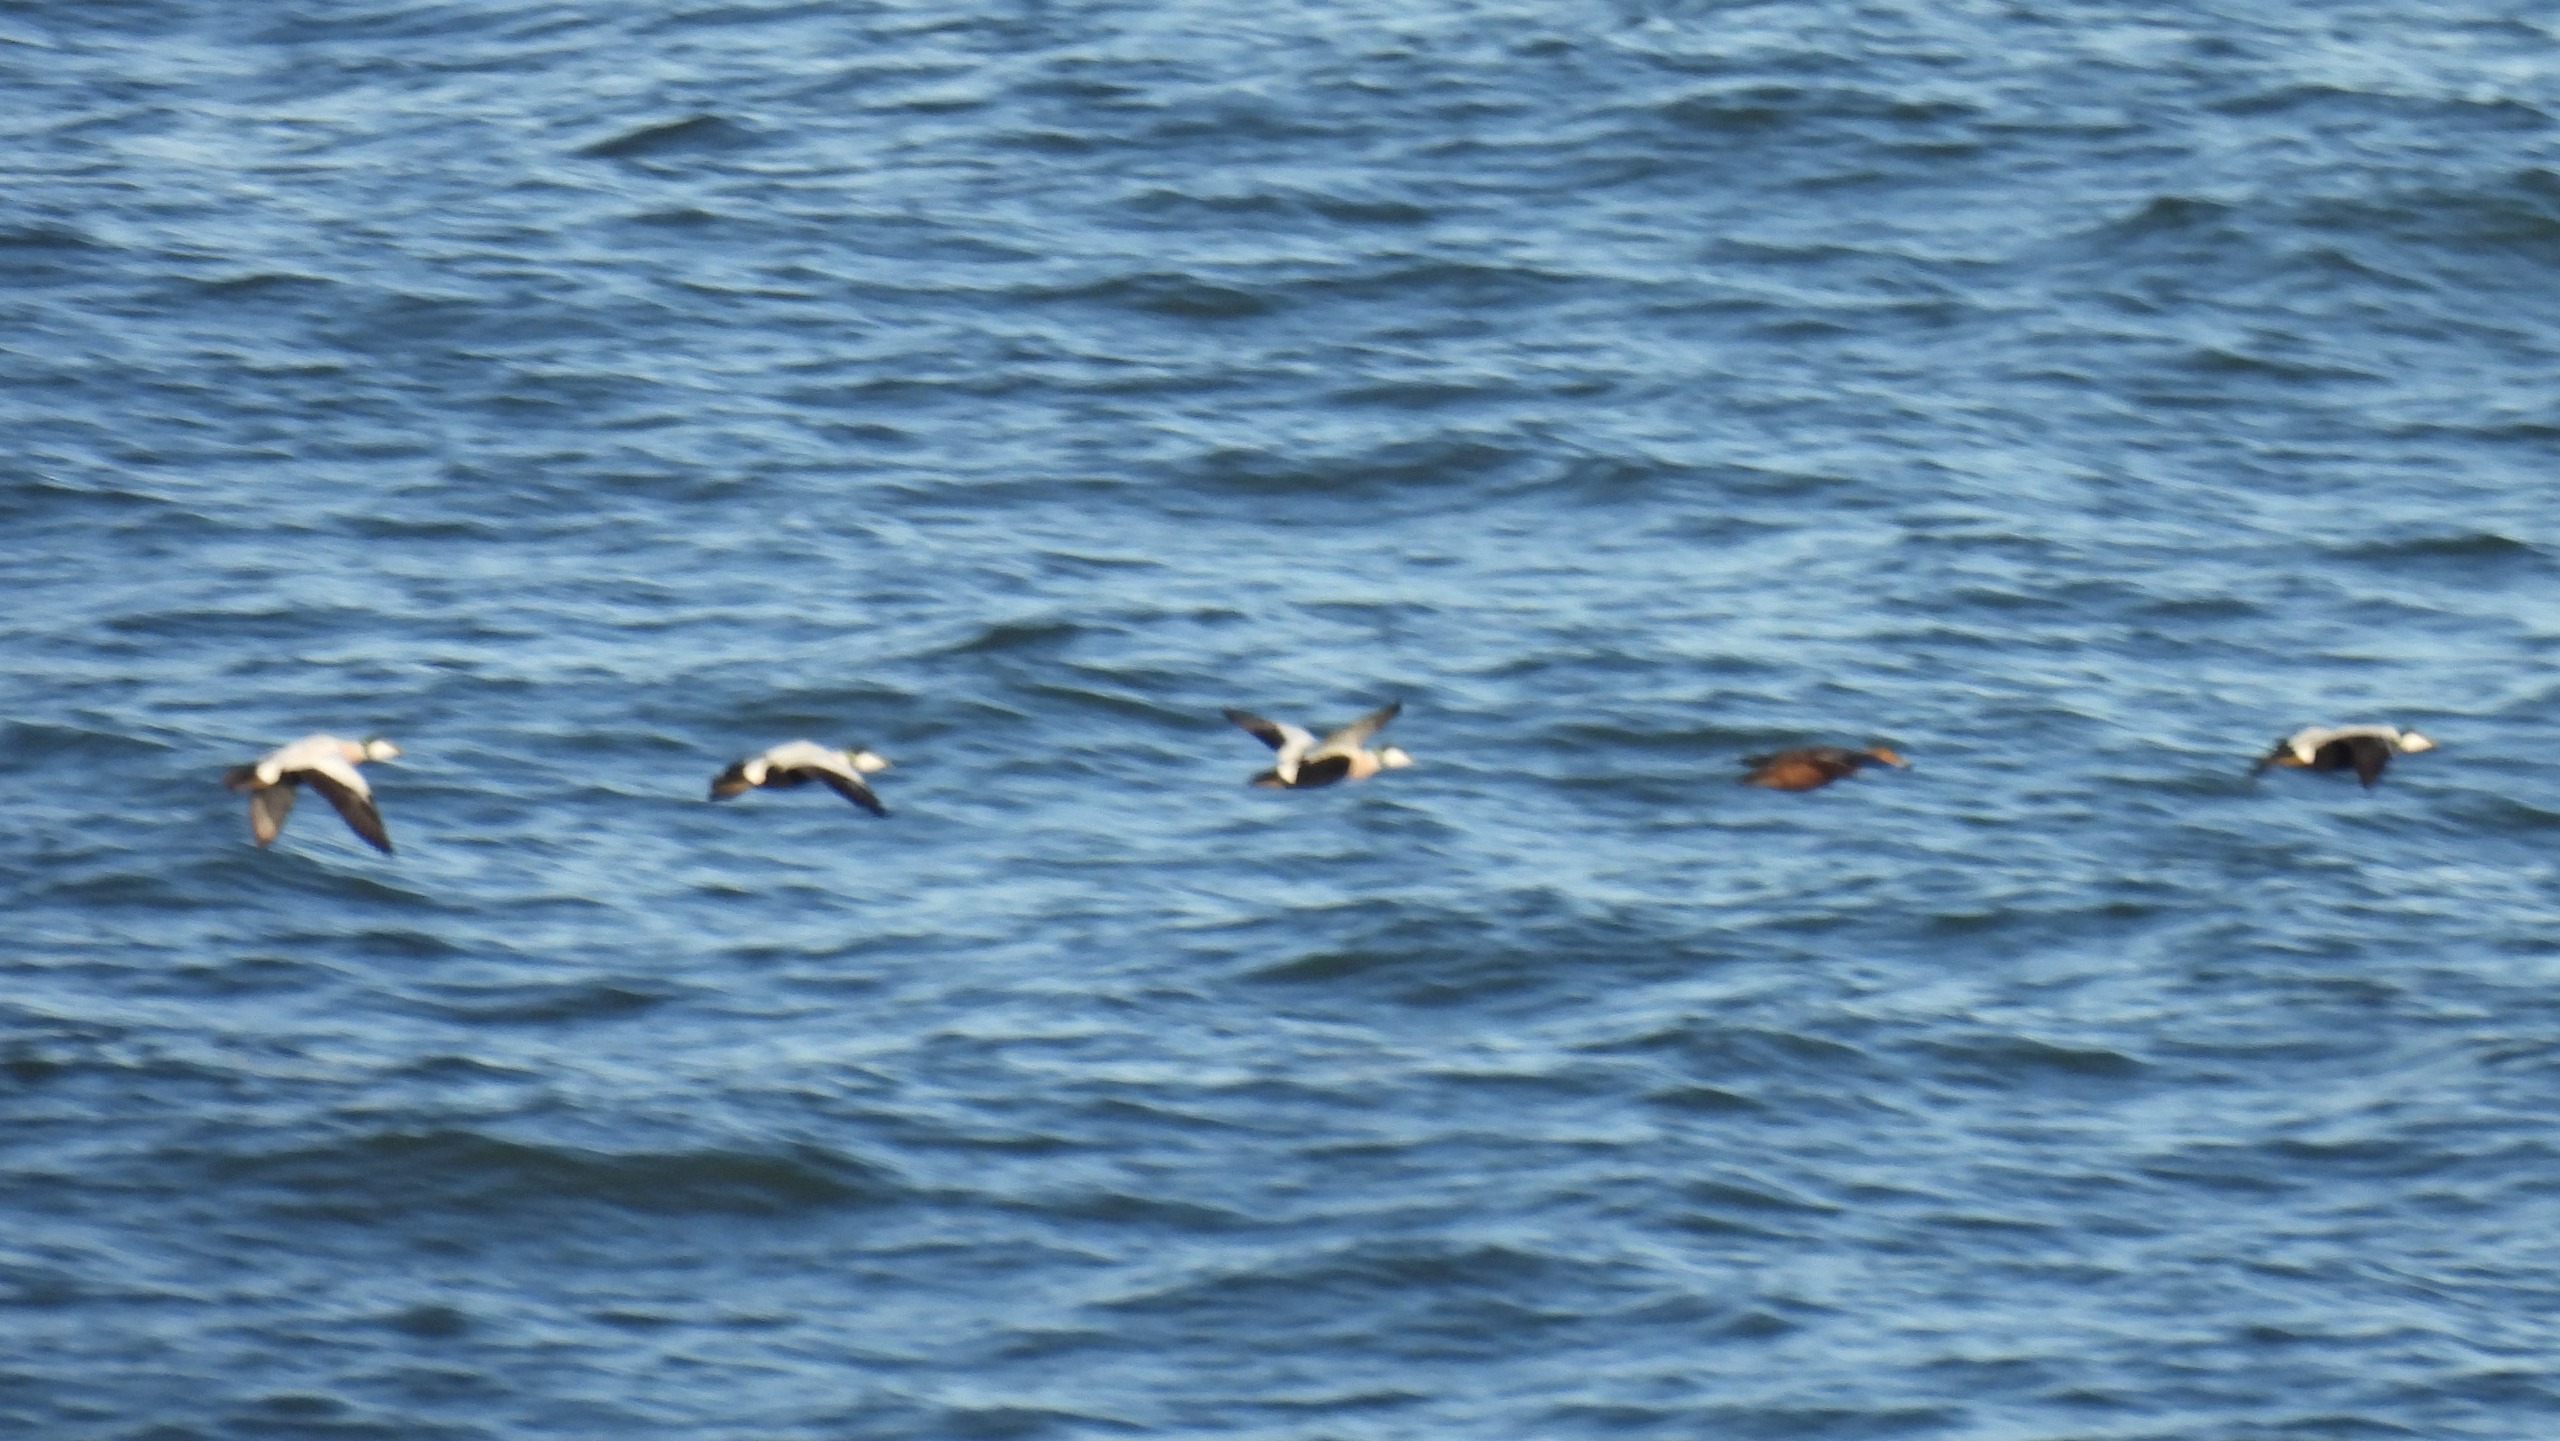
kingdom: Animalia
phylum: Chordata
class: Aves
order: Anseriformes
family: Anatidae
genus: Somateria
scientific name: Somateria mollissima
